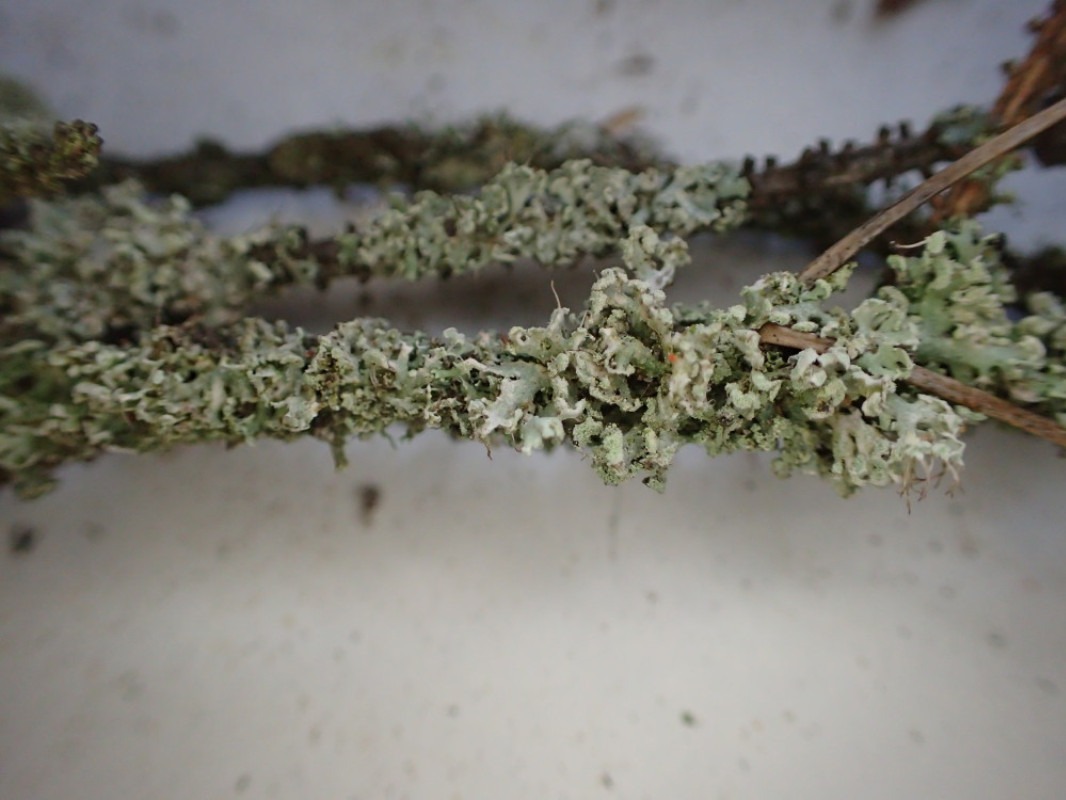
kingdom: Fungi
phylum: Ascomycota
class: Lecanoromycetes
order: Caliciales
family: Physciaceae
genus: Physcia
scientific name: Physcia tenella
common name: spæd rosetlav
